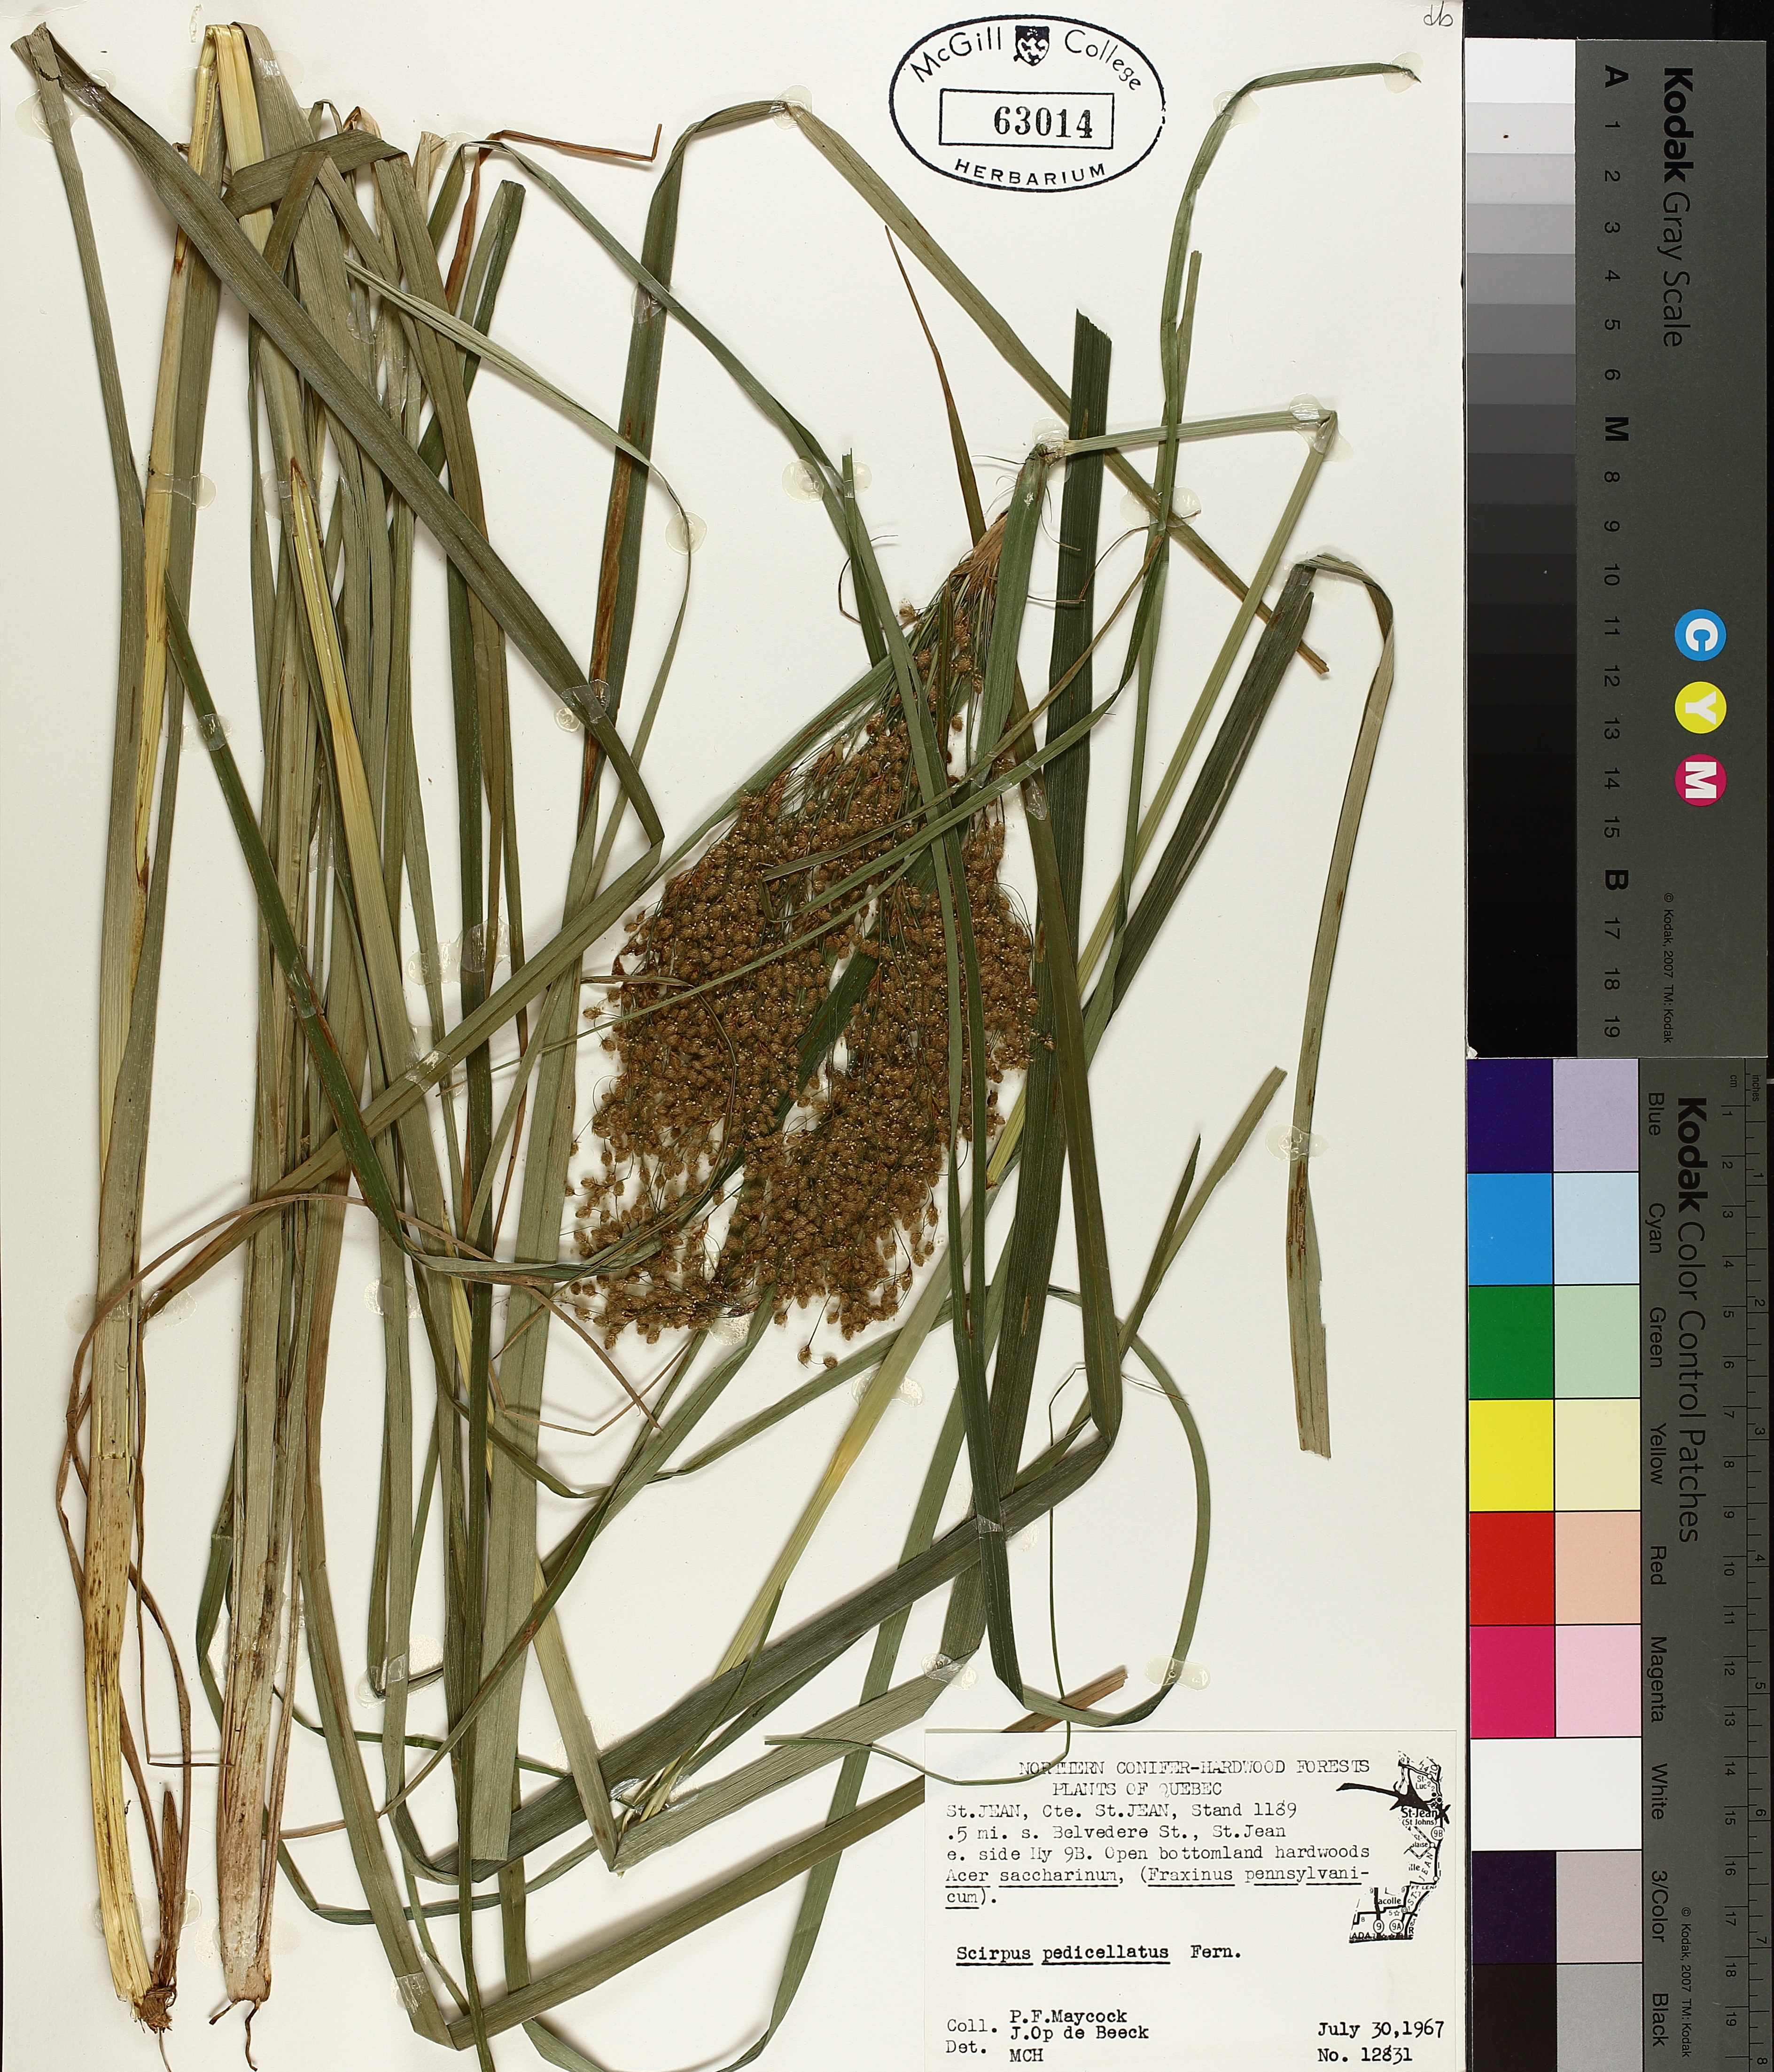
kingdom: Plantae
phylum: Tracheophyta
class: Liliopsida
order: Poales
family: Cyperaceae
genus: Scirpus
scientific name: Scirpus pedicellatus
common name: Pedicelled bulrush
